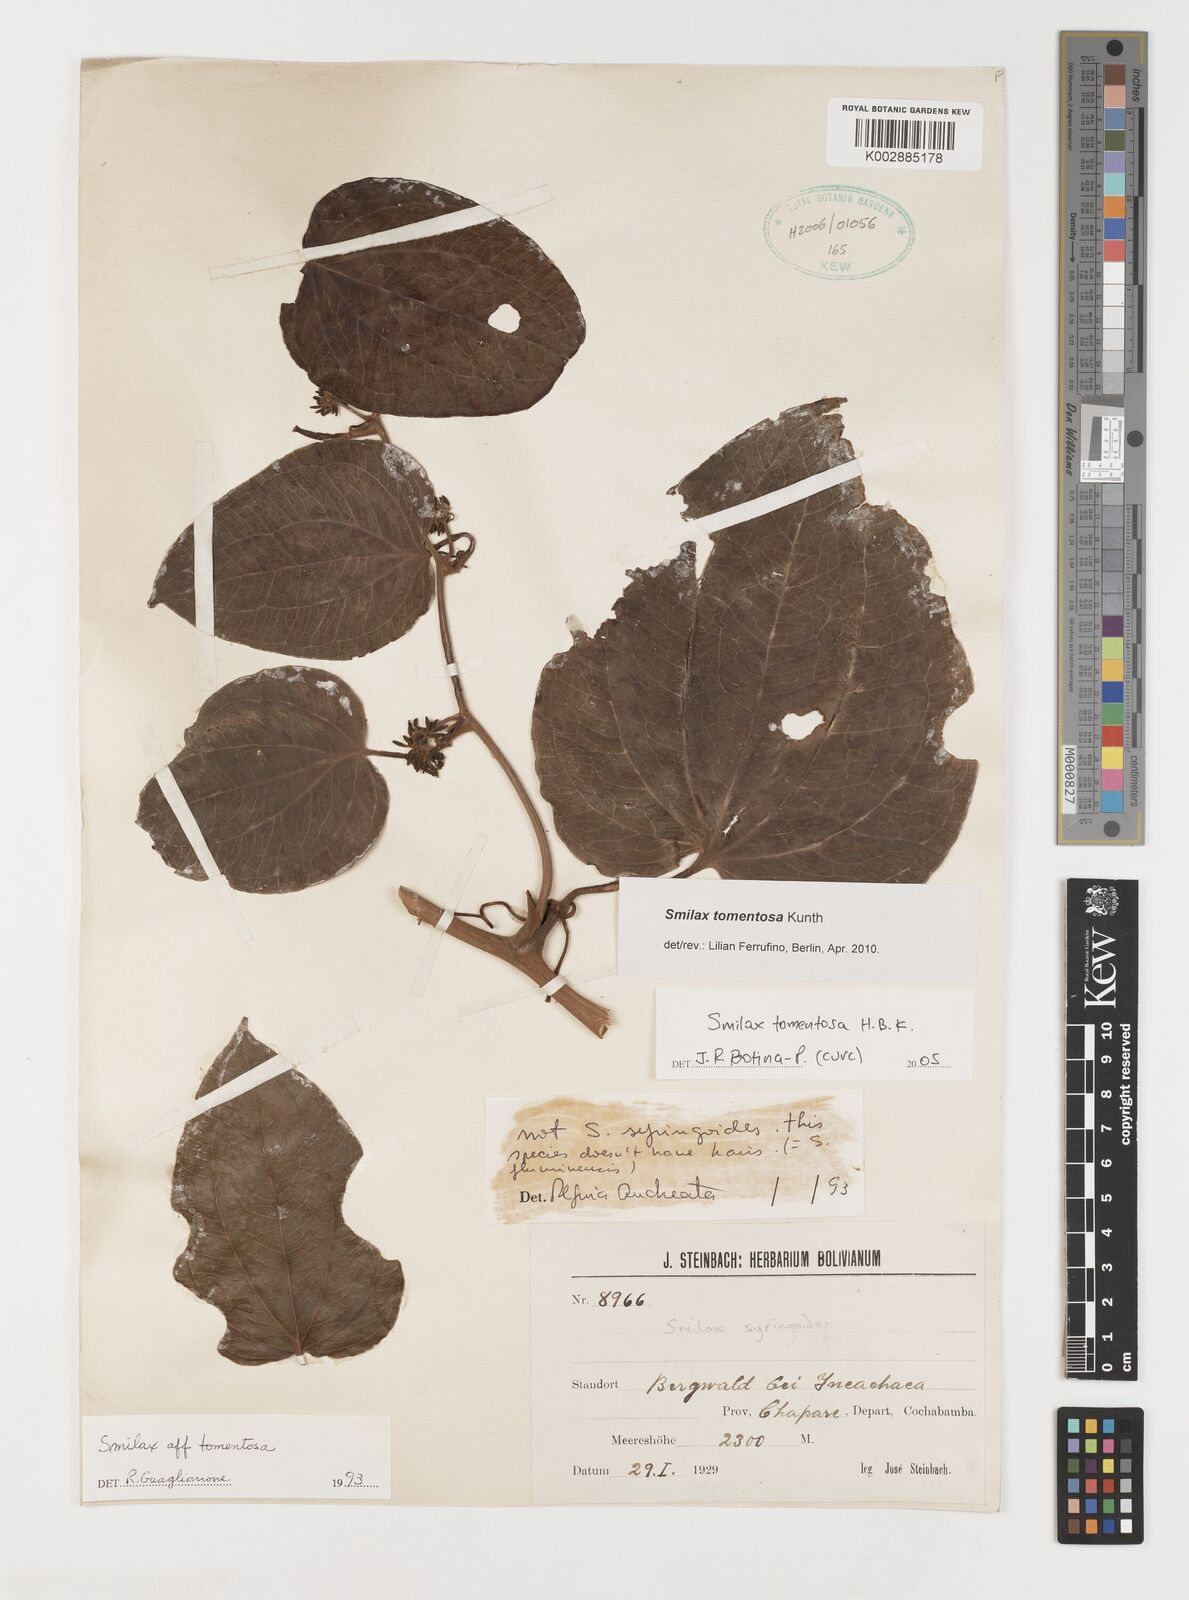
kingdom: Plantae
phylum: Tracheophyta
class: Liliopsida
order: Liliales
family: Smilacaceae
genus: Smilax
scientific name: Smilax tomentosa
